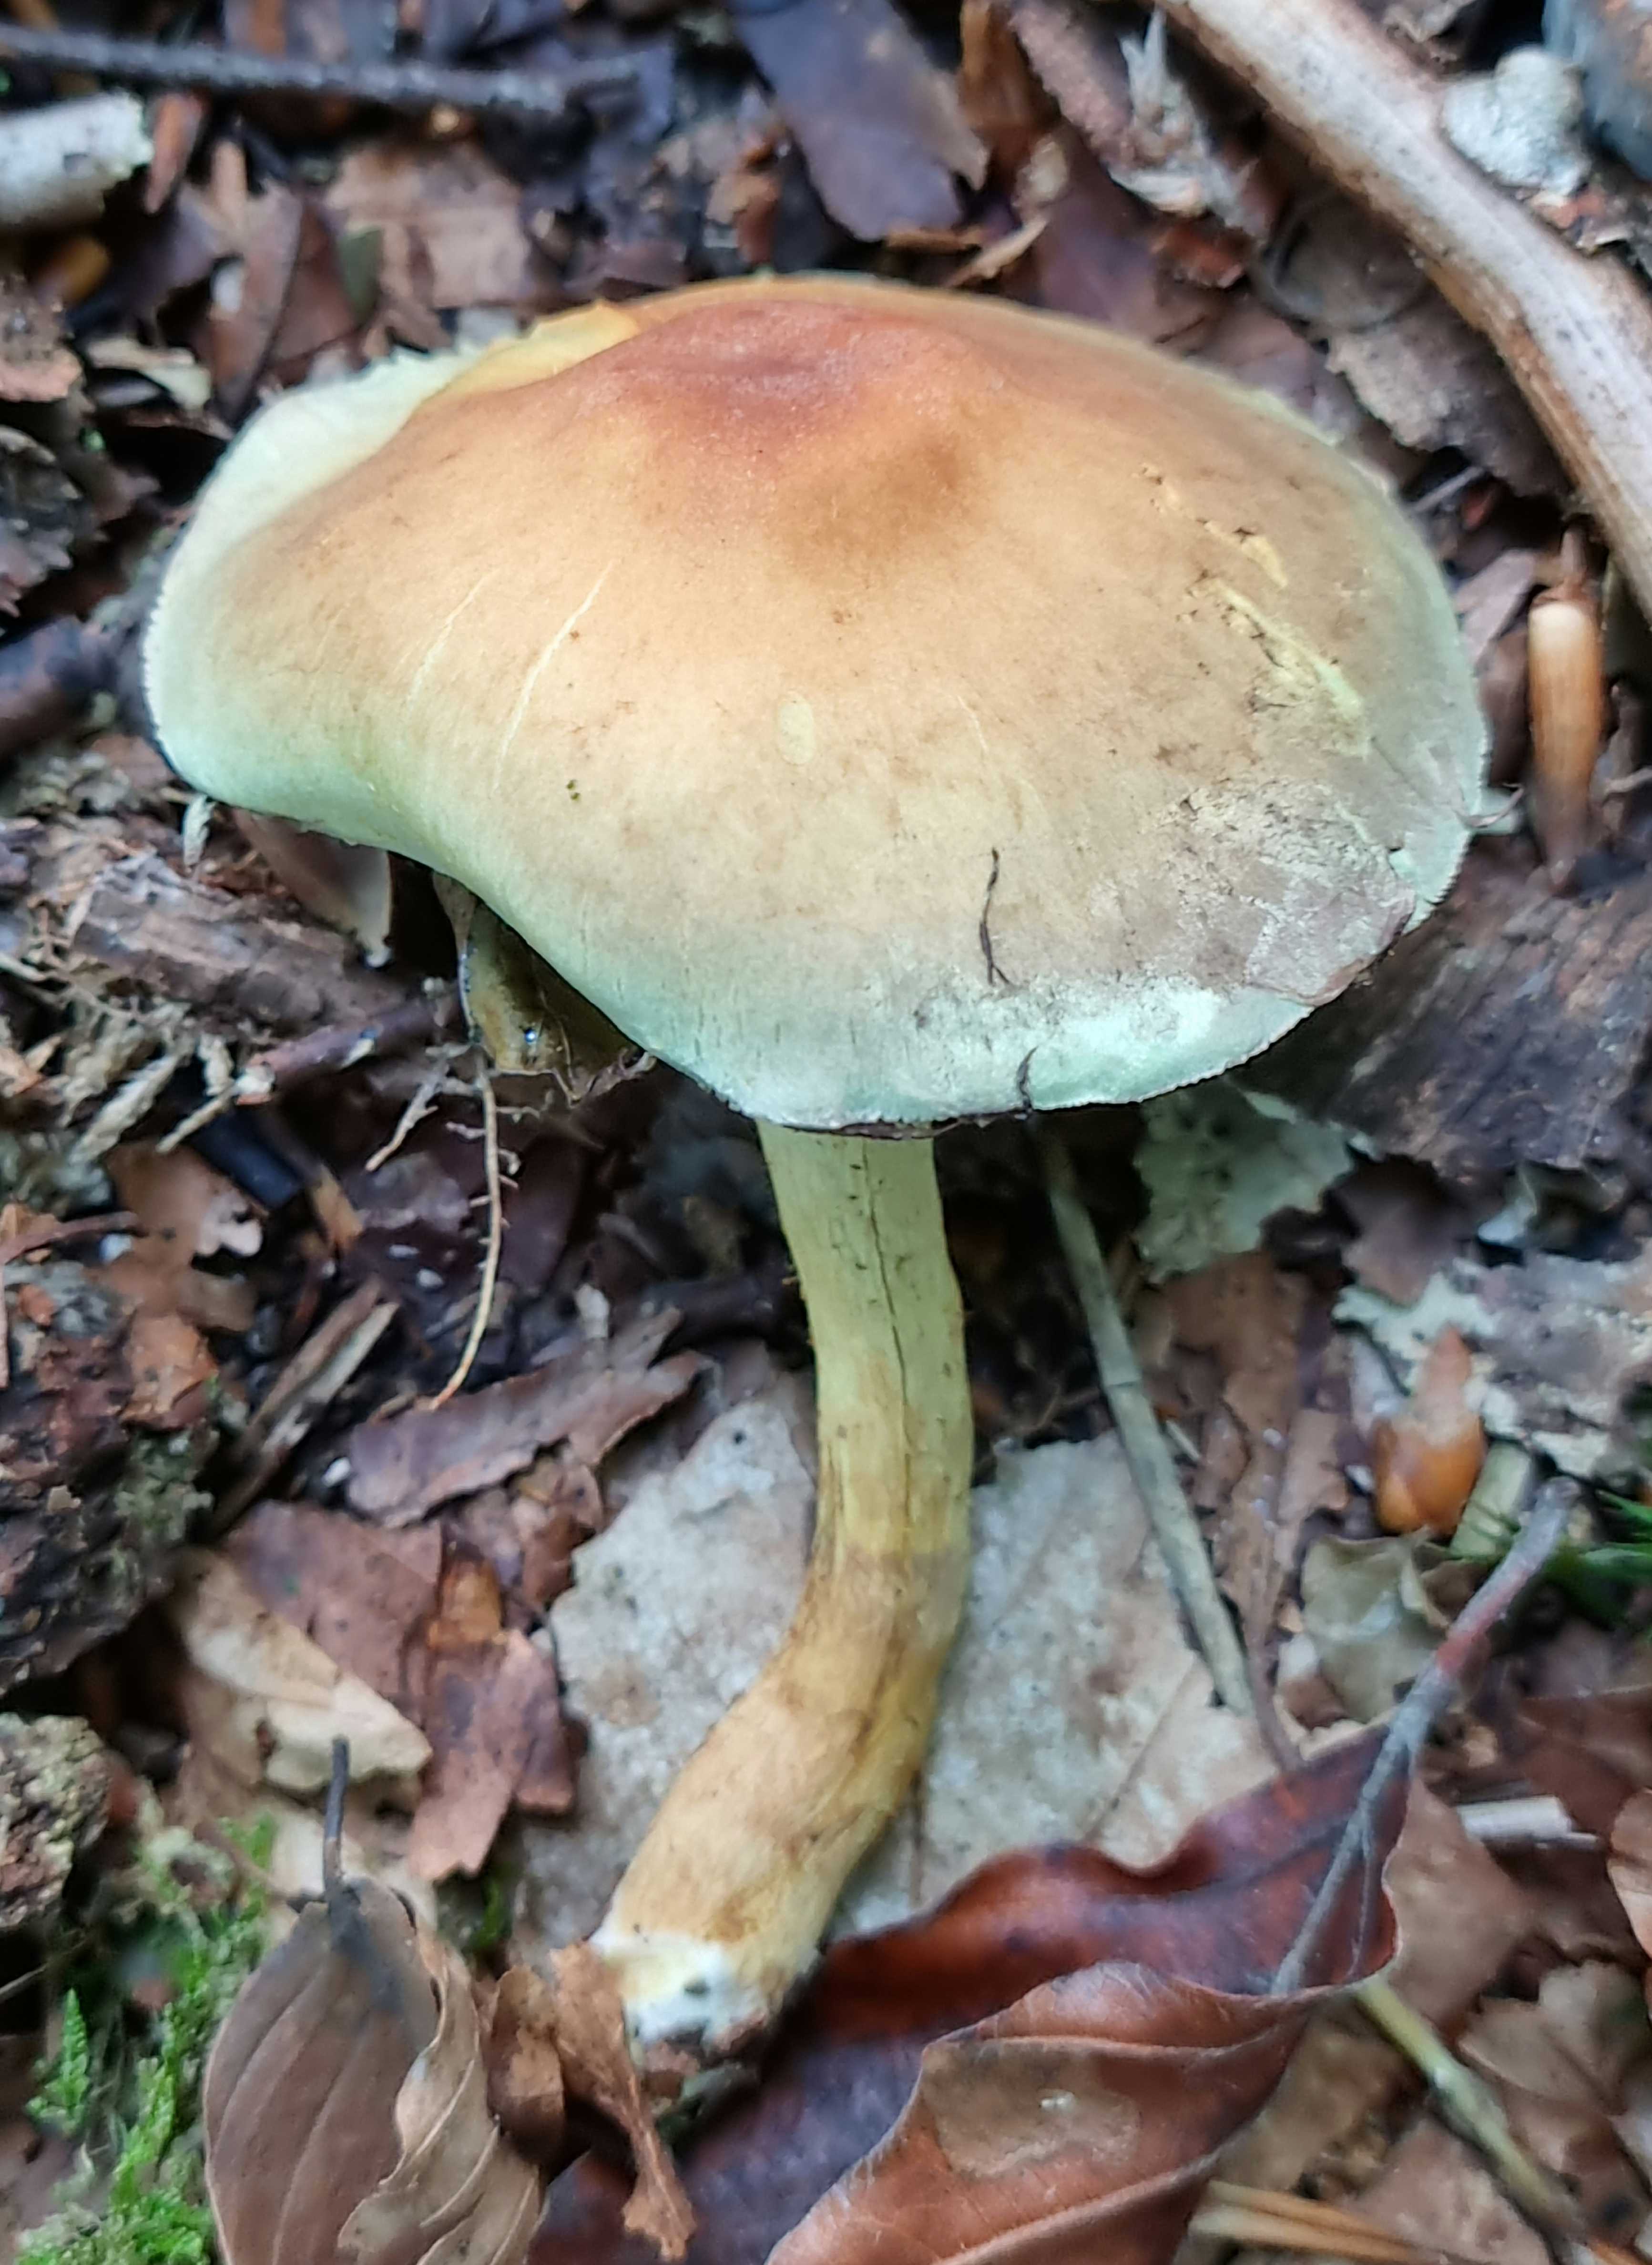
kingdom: Fungi
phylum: Basidiomycota
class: Agaricomycetes
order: Agaricales
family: Strophariaceae
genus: Hypholoma
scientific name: Hypholoma fasciculare
